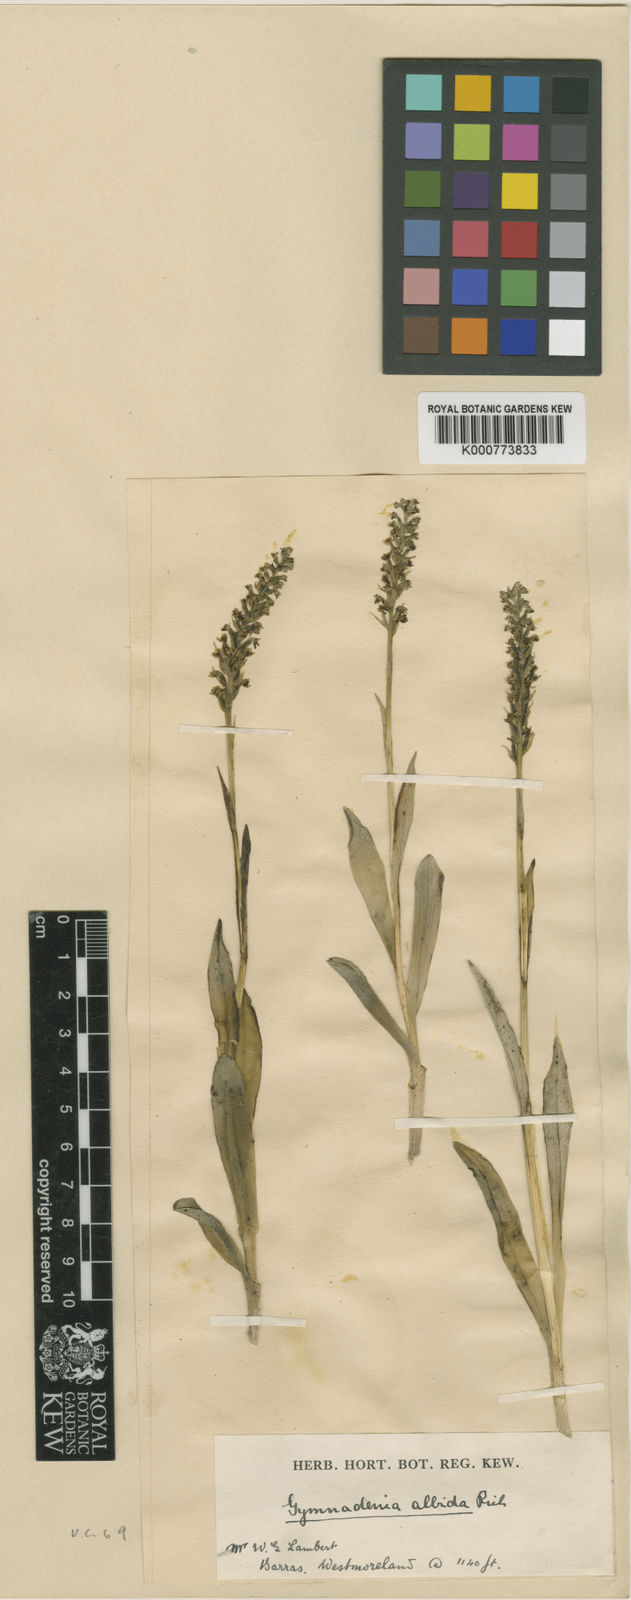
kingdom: Plantae
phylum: Tracheophyta
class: Liliopsida
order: Asparagales
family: Orchidaceae
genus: Pseudorchis
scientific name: Pseudorchis
